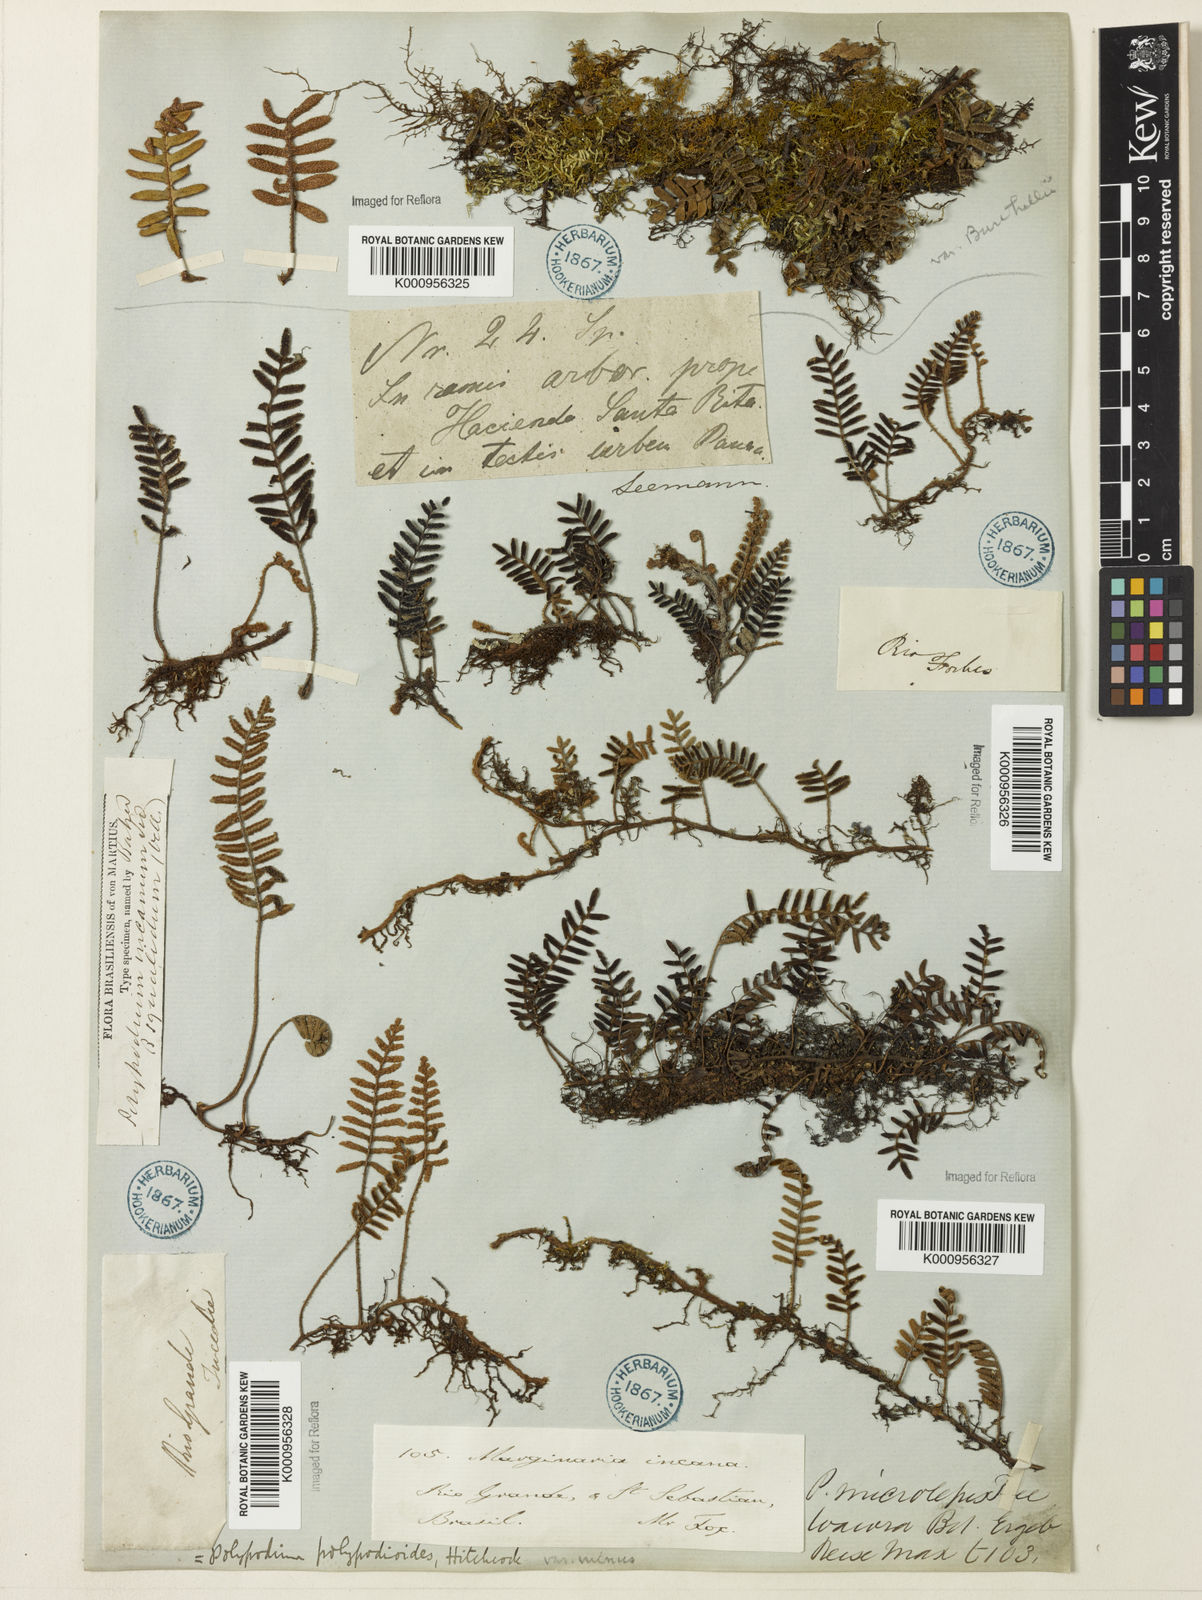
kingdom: Plantae
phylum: Tracheophyta
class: Polypodiopsida
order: Polypodiales
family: Polypodiaceae
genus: Pleopeltis
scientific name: Pleopeltis polypodioides
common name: Resurrection fern
